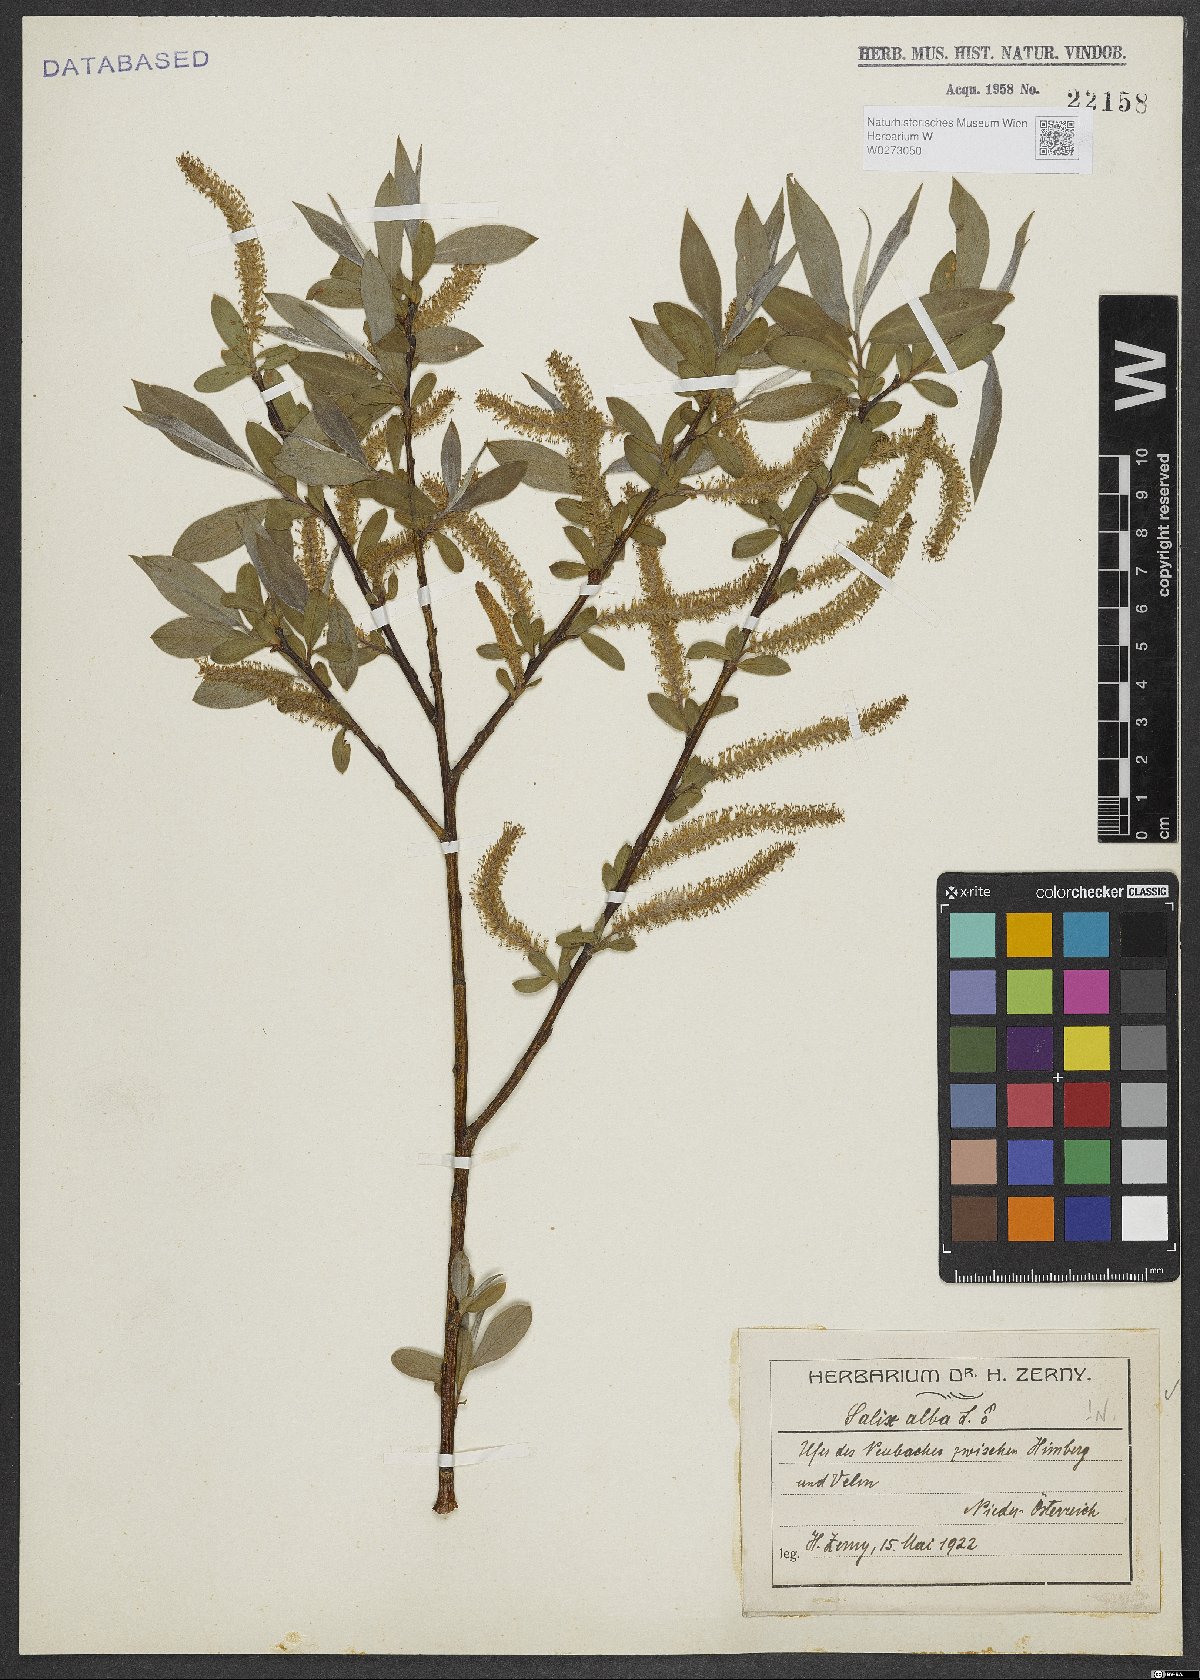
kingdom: Plantae
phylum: Tracheophyta
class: Magnoliopsida
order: Malpighiales
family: Salicaceae
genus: Salix
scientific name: Salix alba
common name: White willow
